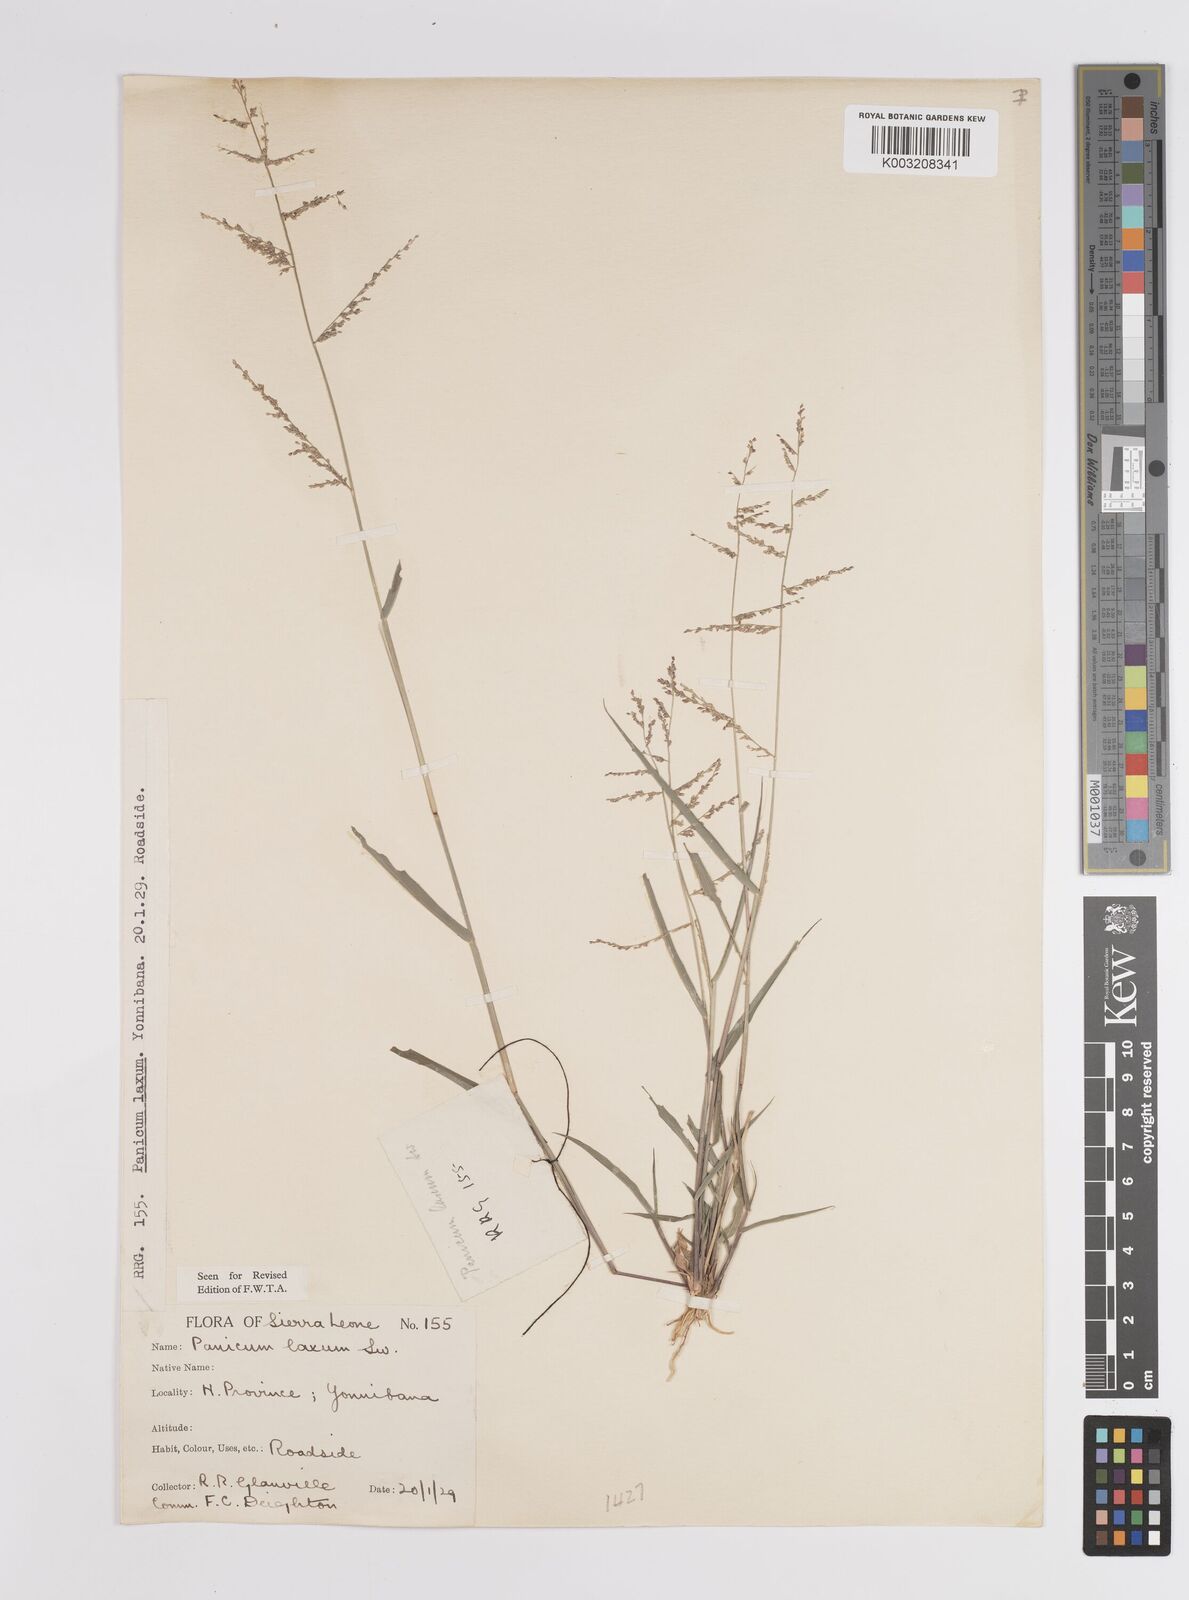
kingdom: Plantae
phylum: Tracheophyta
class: Liliopsida
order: Poales
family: Poaceae
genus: Steinchisma
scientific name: Steinchisma laxum
